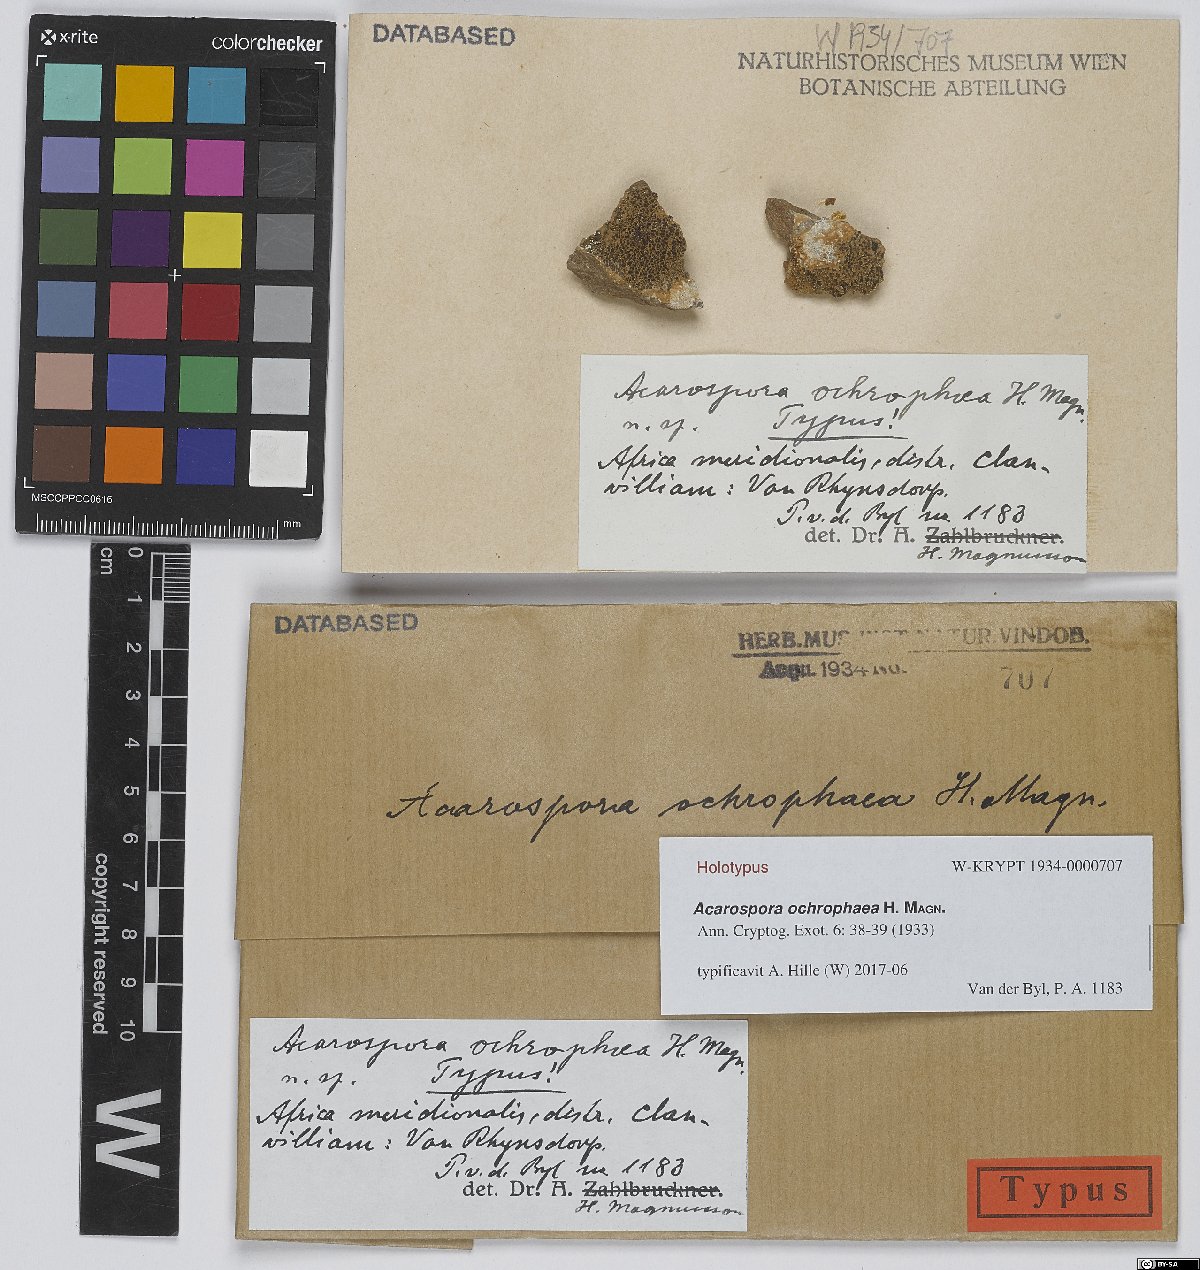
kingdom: Fungi
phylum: Ascomycota
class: Lecanoromycetes
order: Acarosporales
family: Acarosporaceae
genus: Acarospora
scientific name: Acarospora xanthophana
